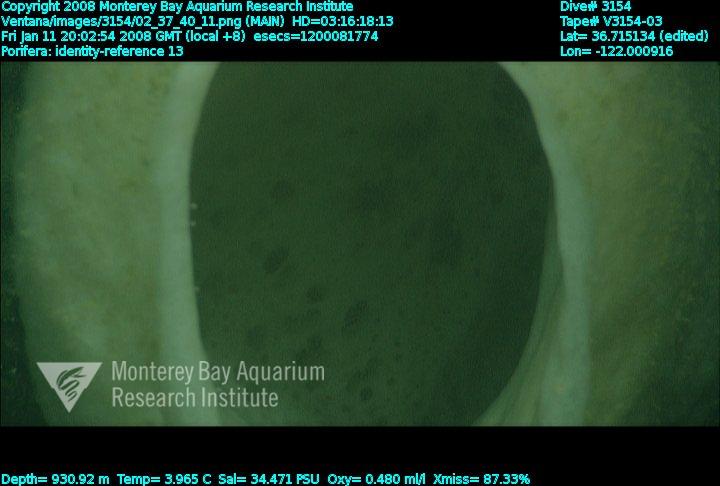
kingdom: Animalia
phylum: Porifera
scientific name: Porifera
